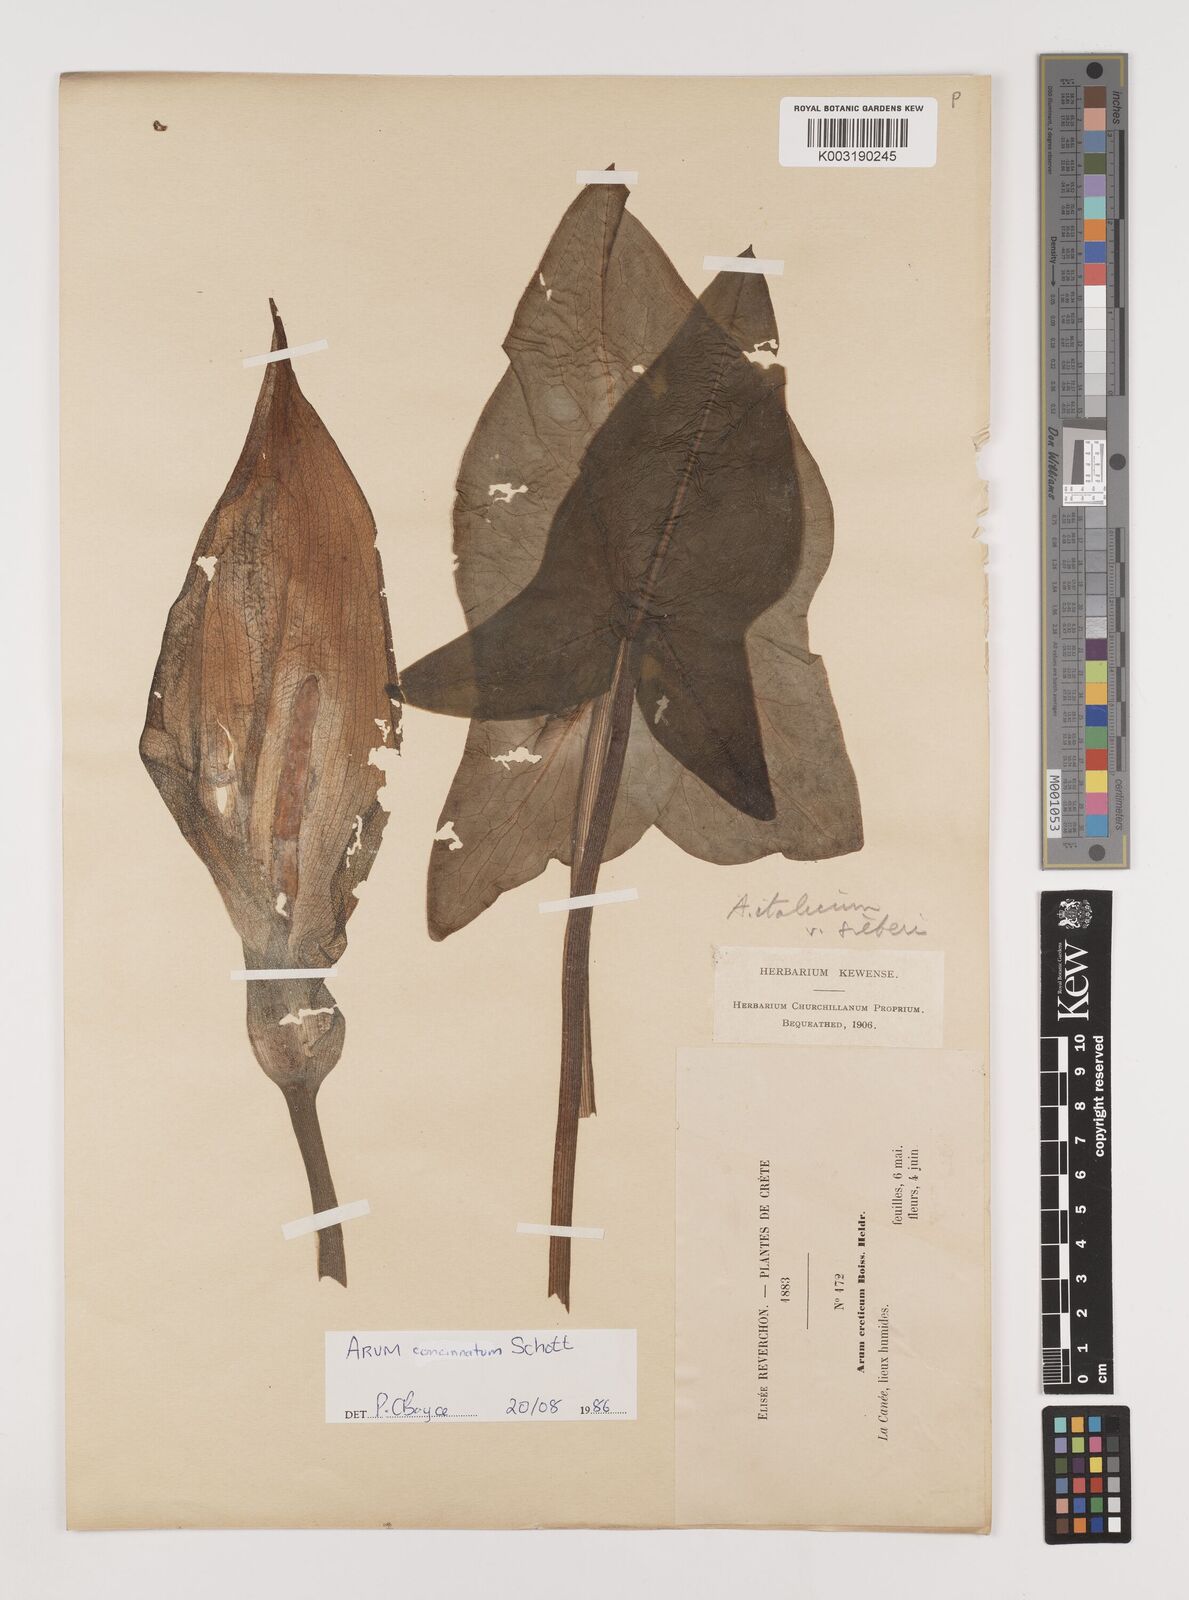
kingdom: Plantae
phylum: Tracheophyta
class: Liliopsida
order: Alismatales
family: Araceae
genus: Arum
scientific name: Arum concinnatum
